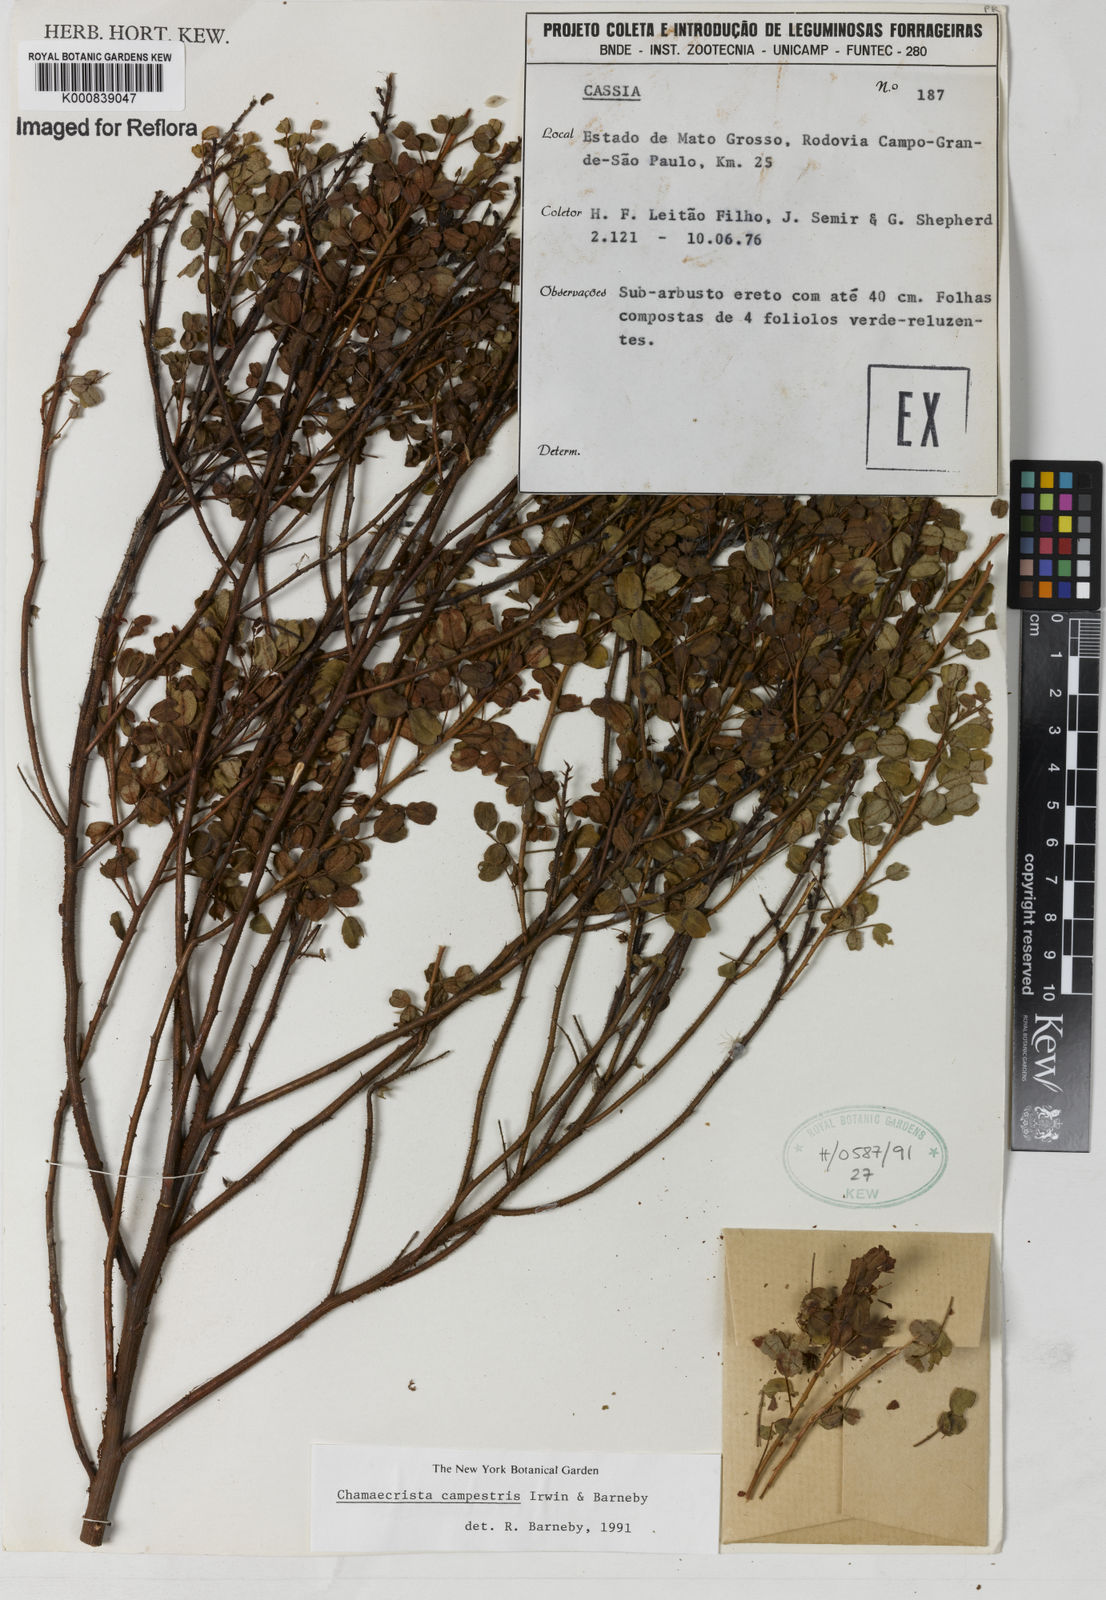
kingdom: Plantae
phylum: Tracheophyta
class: Magnoliopsida
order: Fabales
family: Fabaceae
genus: Chamaecrista
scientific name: Chamaecrista campestris
